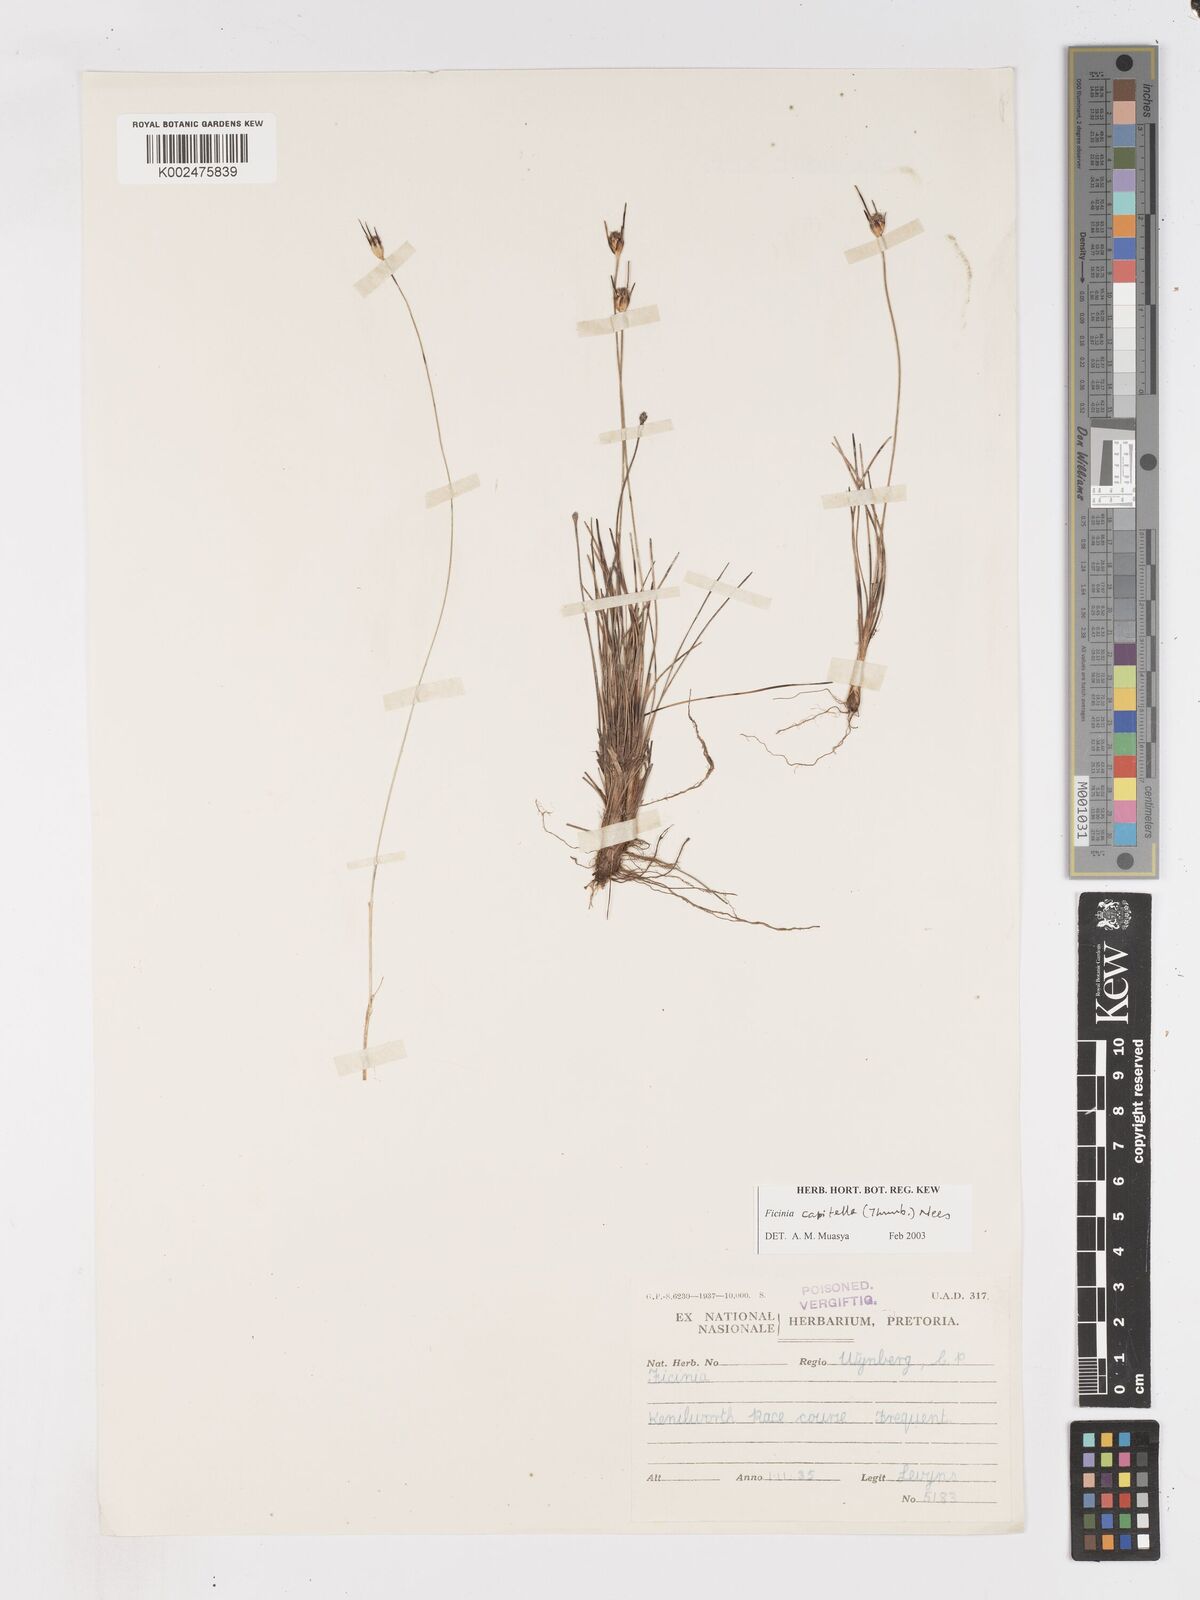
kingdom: Plantae
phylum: Tracheophyta
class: Liliopsida
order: Poales
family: Cyperaceae
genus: Ficinia
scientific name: Ficinia capitella
